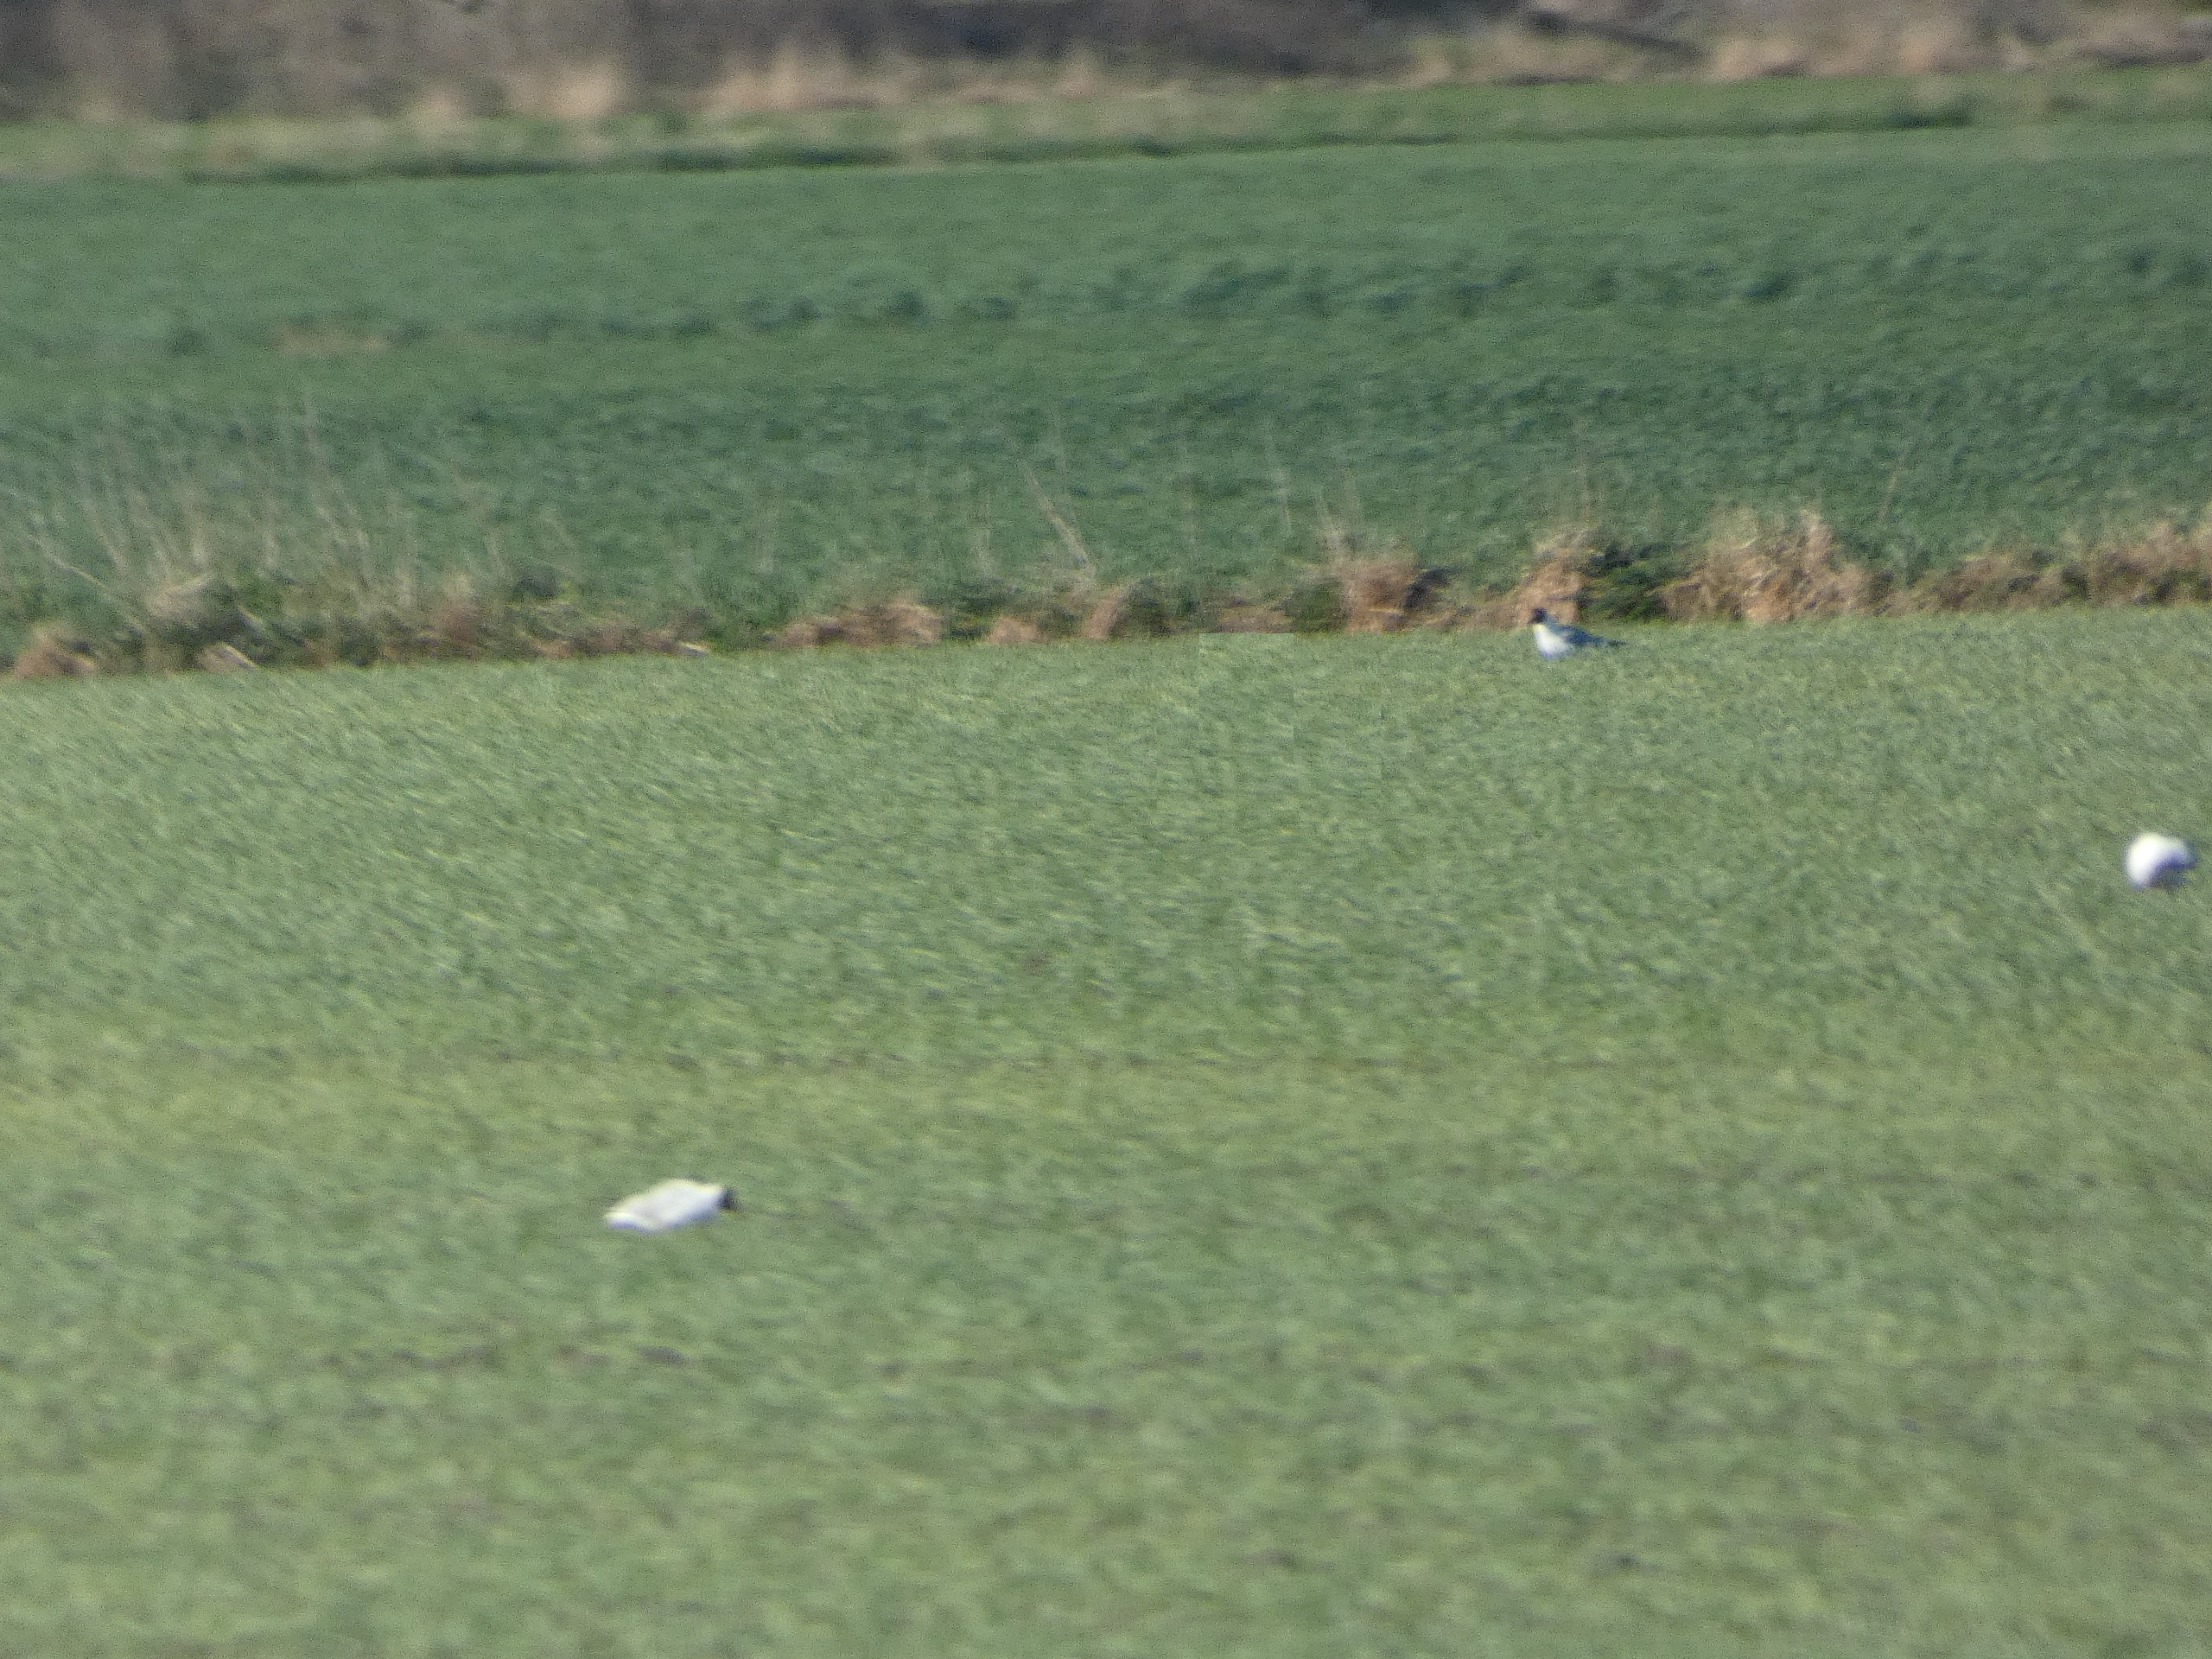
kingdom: Animalia
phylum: Chordata
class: Aves
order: Charadriiformes
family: Laridae
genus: Chroicocephalus
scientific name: Chroicocephalus ridibundus
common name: Hættemåge
